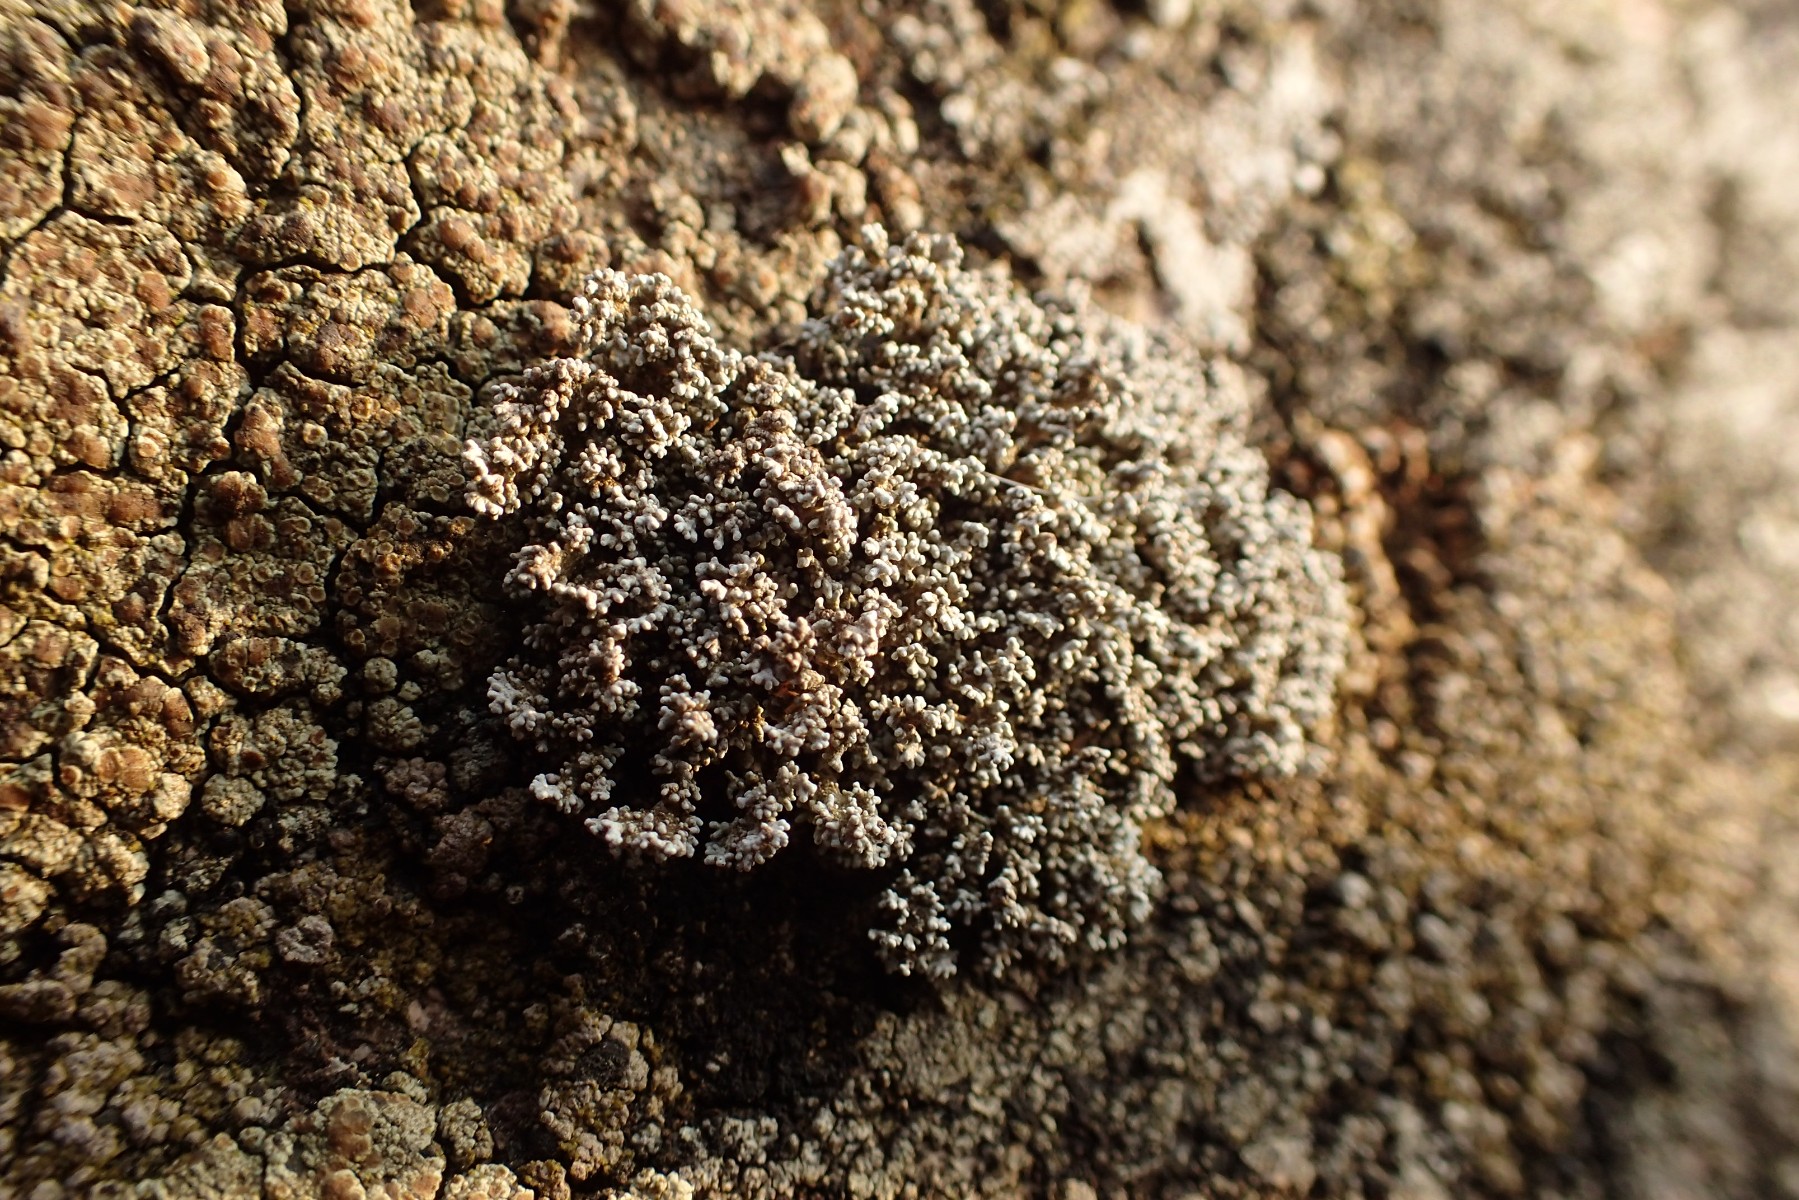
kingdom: Fungi
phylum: Ascomycota
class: Lecanoromycetes
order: Lecanorales
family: Stereocaulaceae
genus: Stereocaulon
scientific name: Stereocaulon evolutum
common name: pude-korallav
